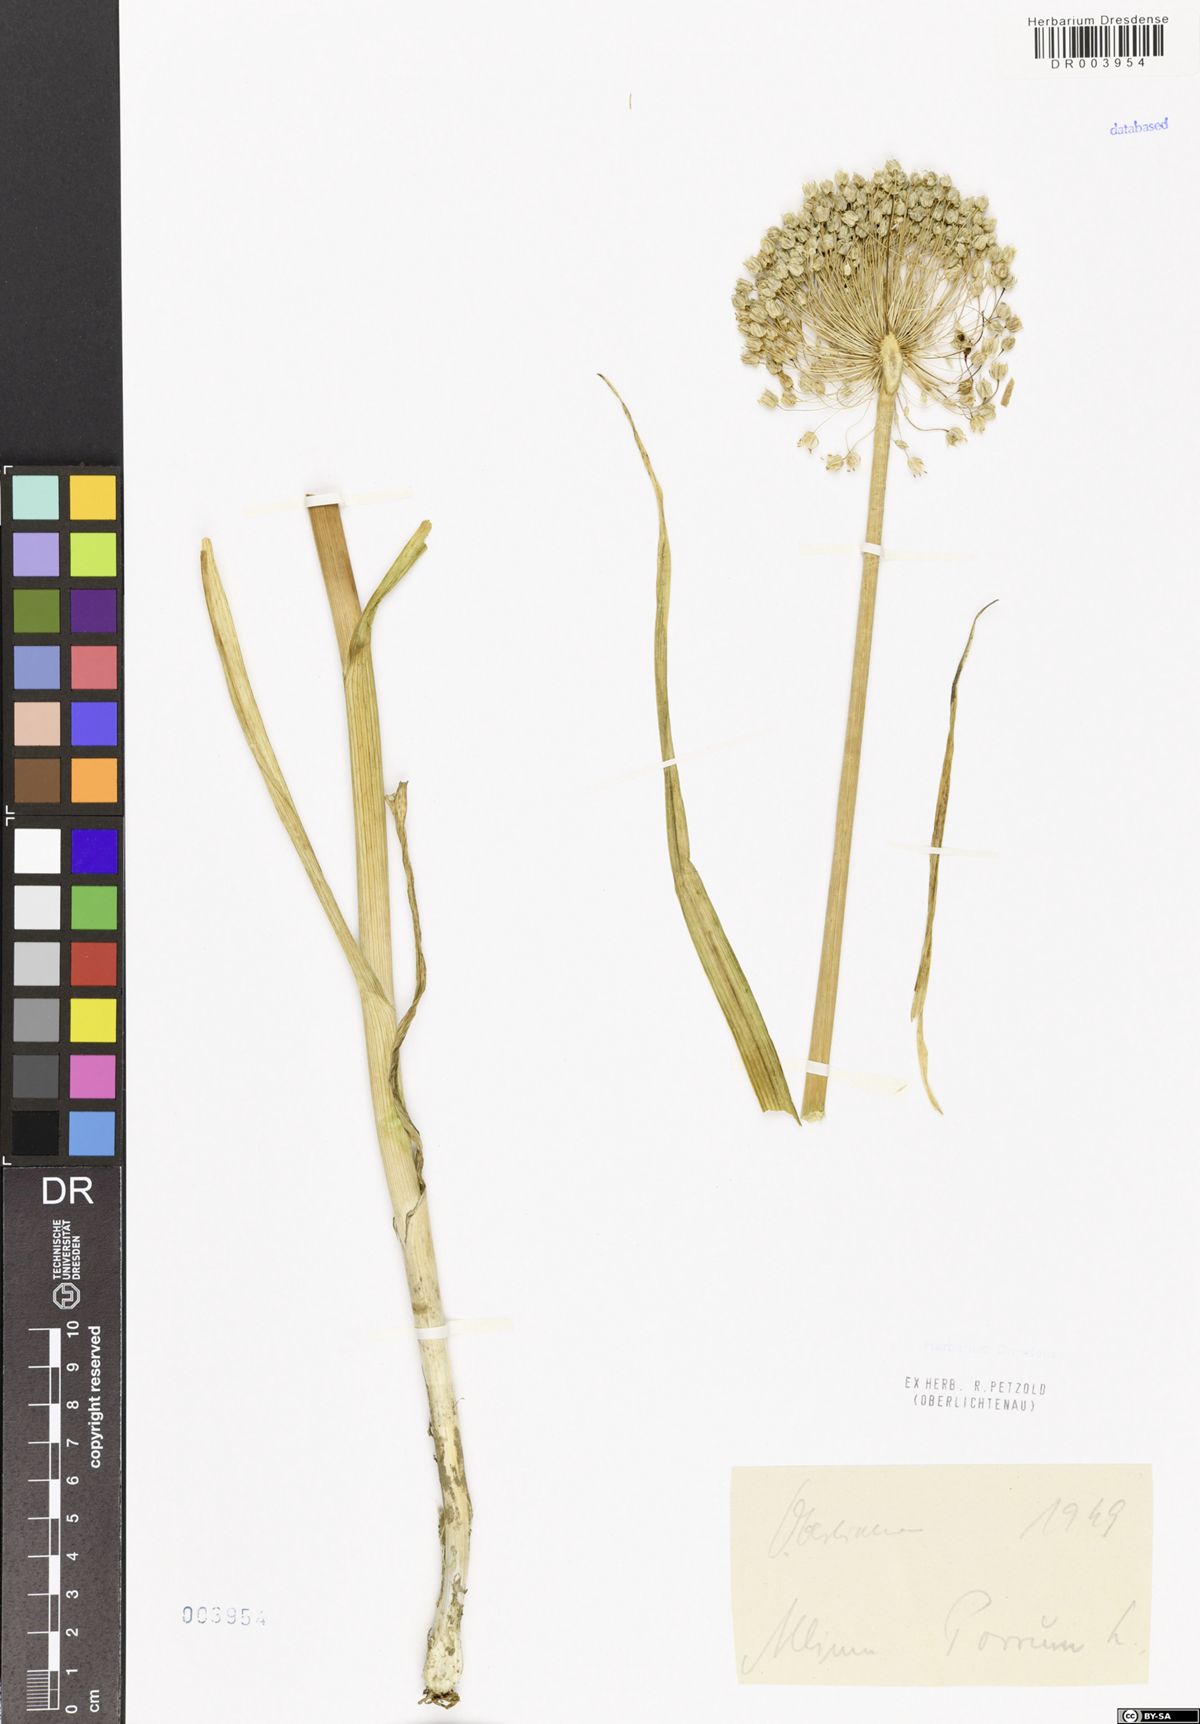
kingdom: Plantae
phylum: Tracheophyta
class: Liliopsida
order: Asparagales
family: Amaryllidaceae
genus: Allium
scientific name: Allium ampeloprasum
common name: Wild leek
